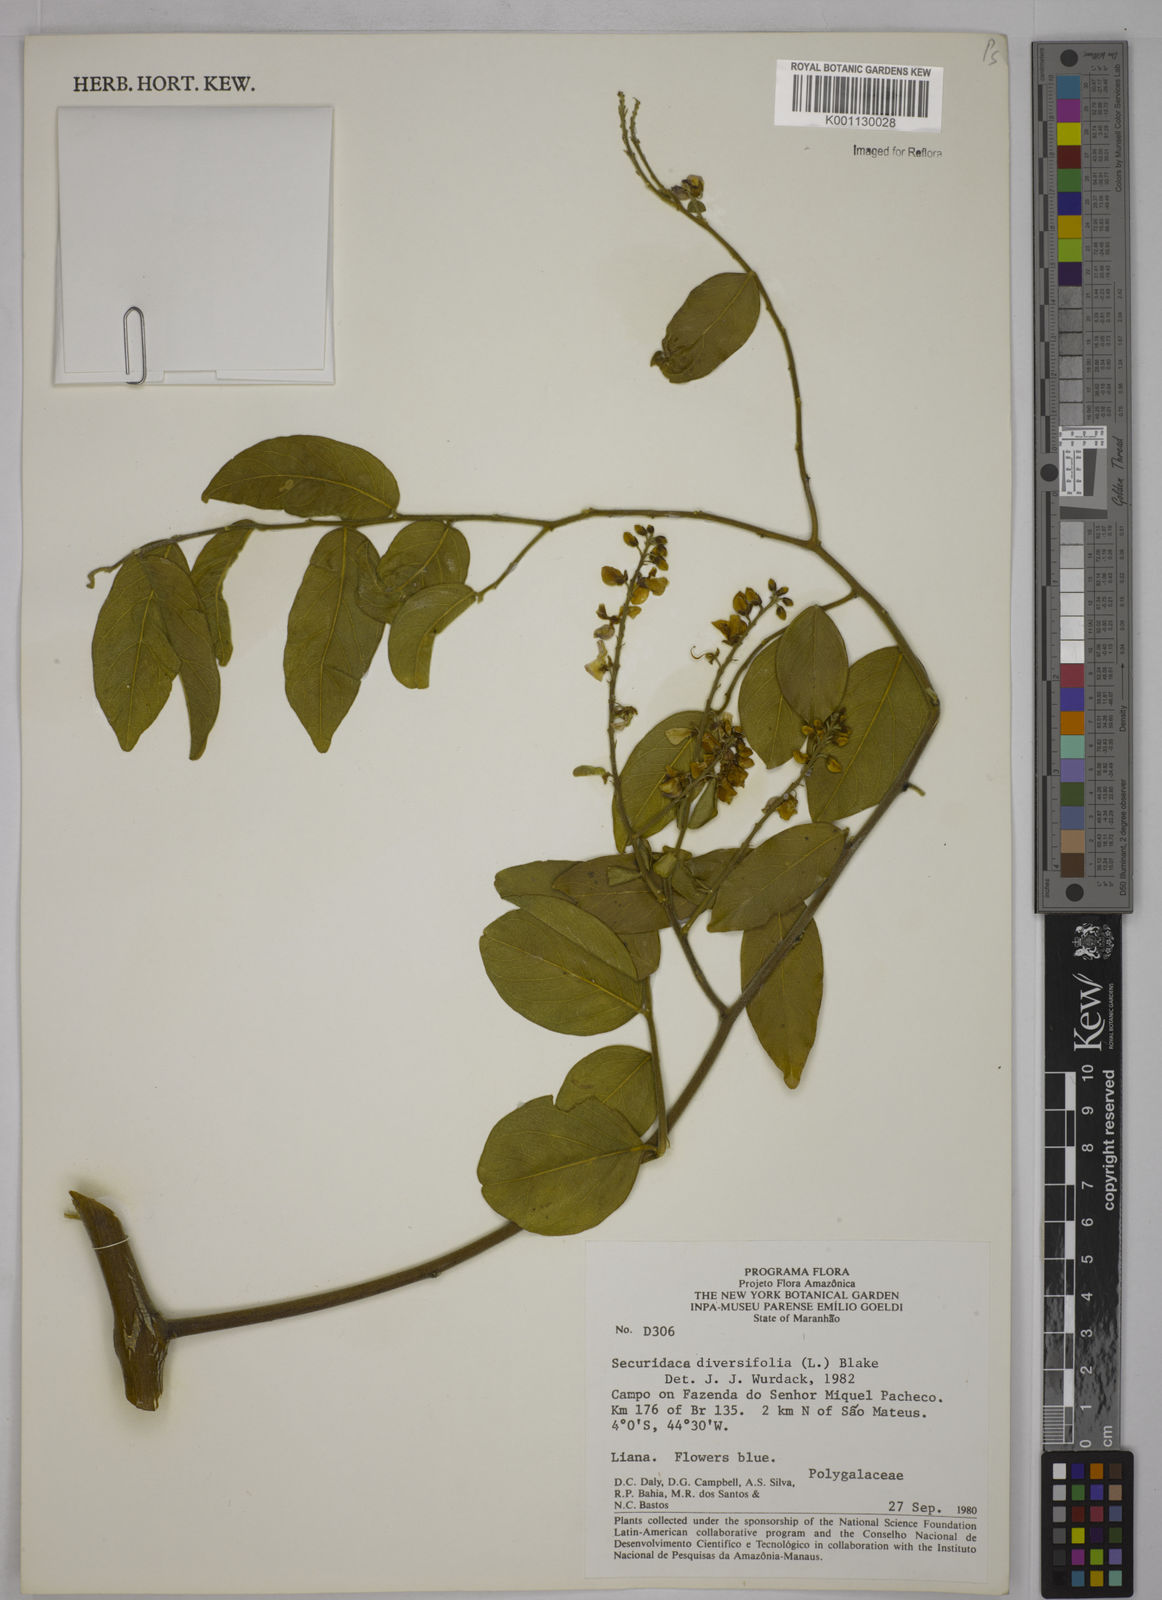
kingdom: Plantae
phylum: Tracheophyta
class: Magnoliopsida
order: Fabales
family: Polygalaceae
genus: Securidaca
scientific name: Securidaca diversifolia
